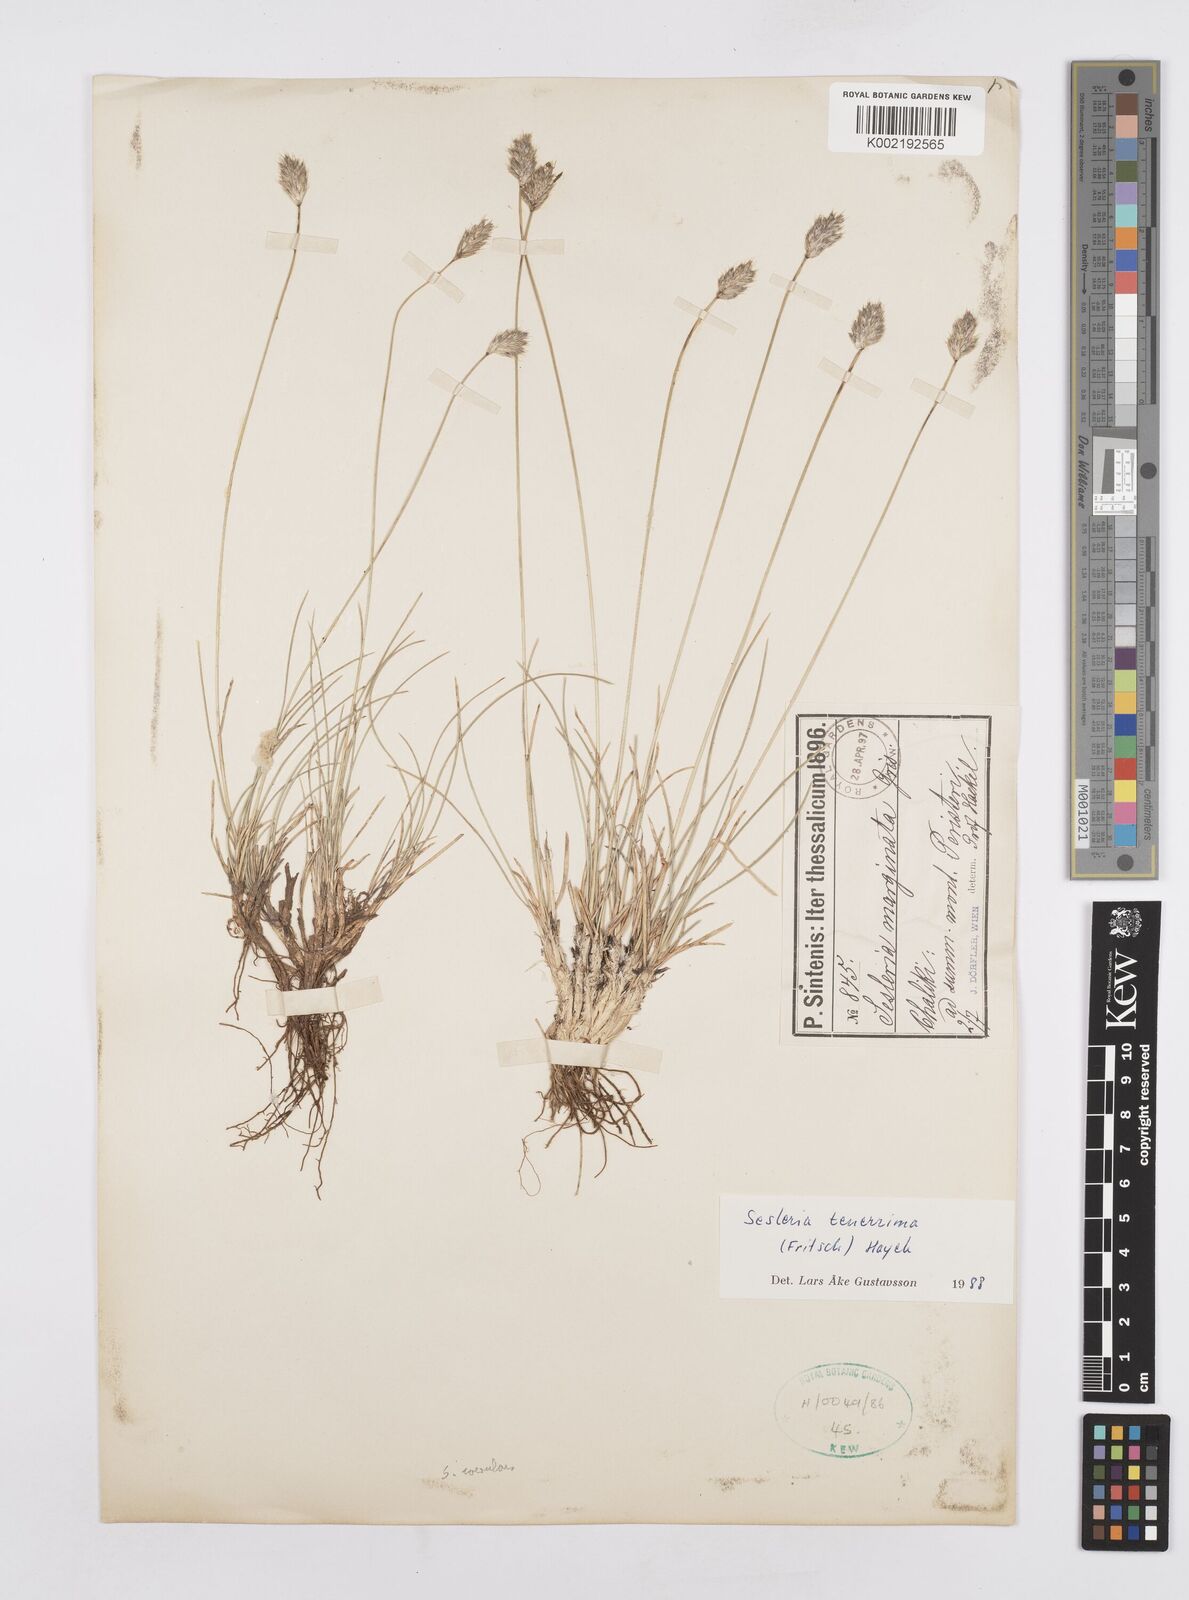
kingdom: Plantae
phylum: Tracheophyta
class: Liliopsida
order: Poales
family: Poaceae
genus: Sesleria
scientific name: Sesleria tenerrima
